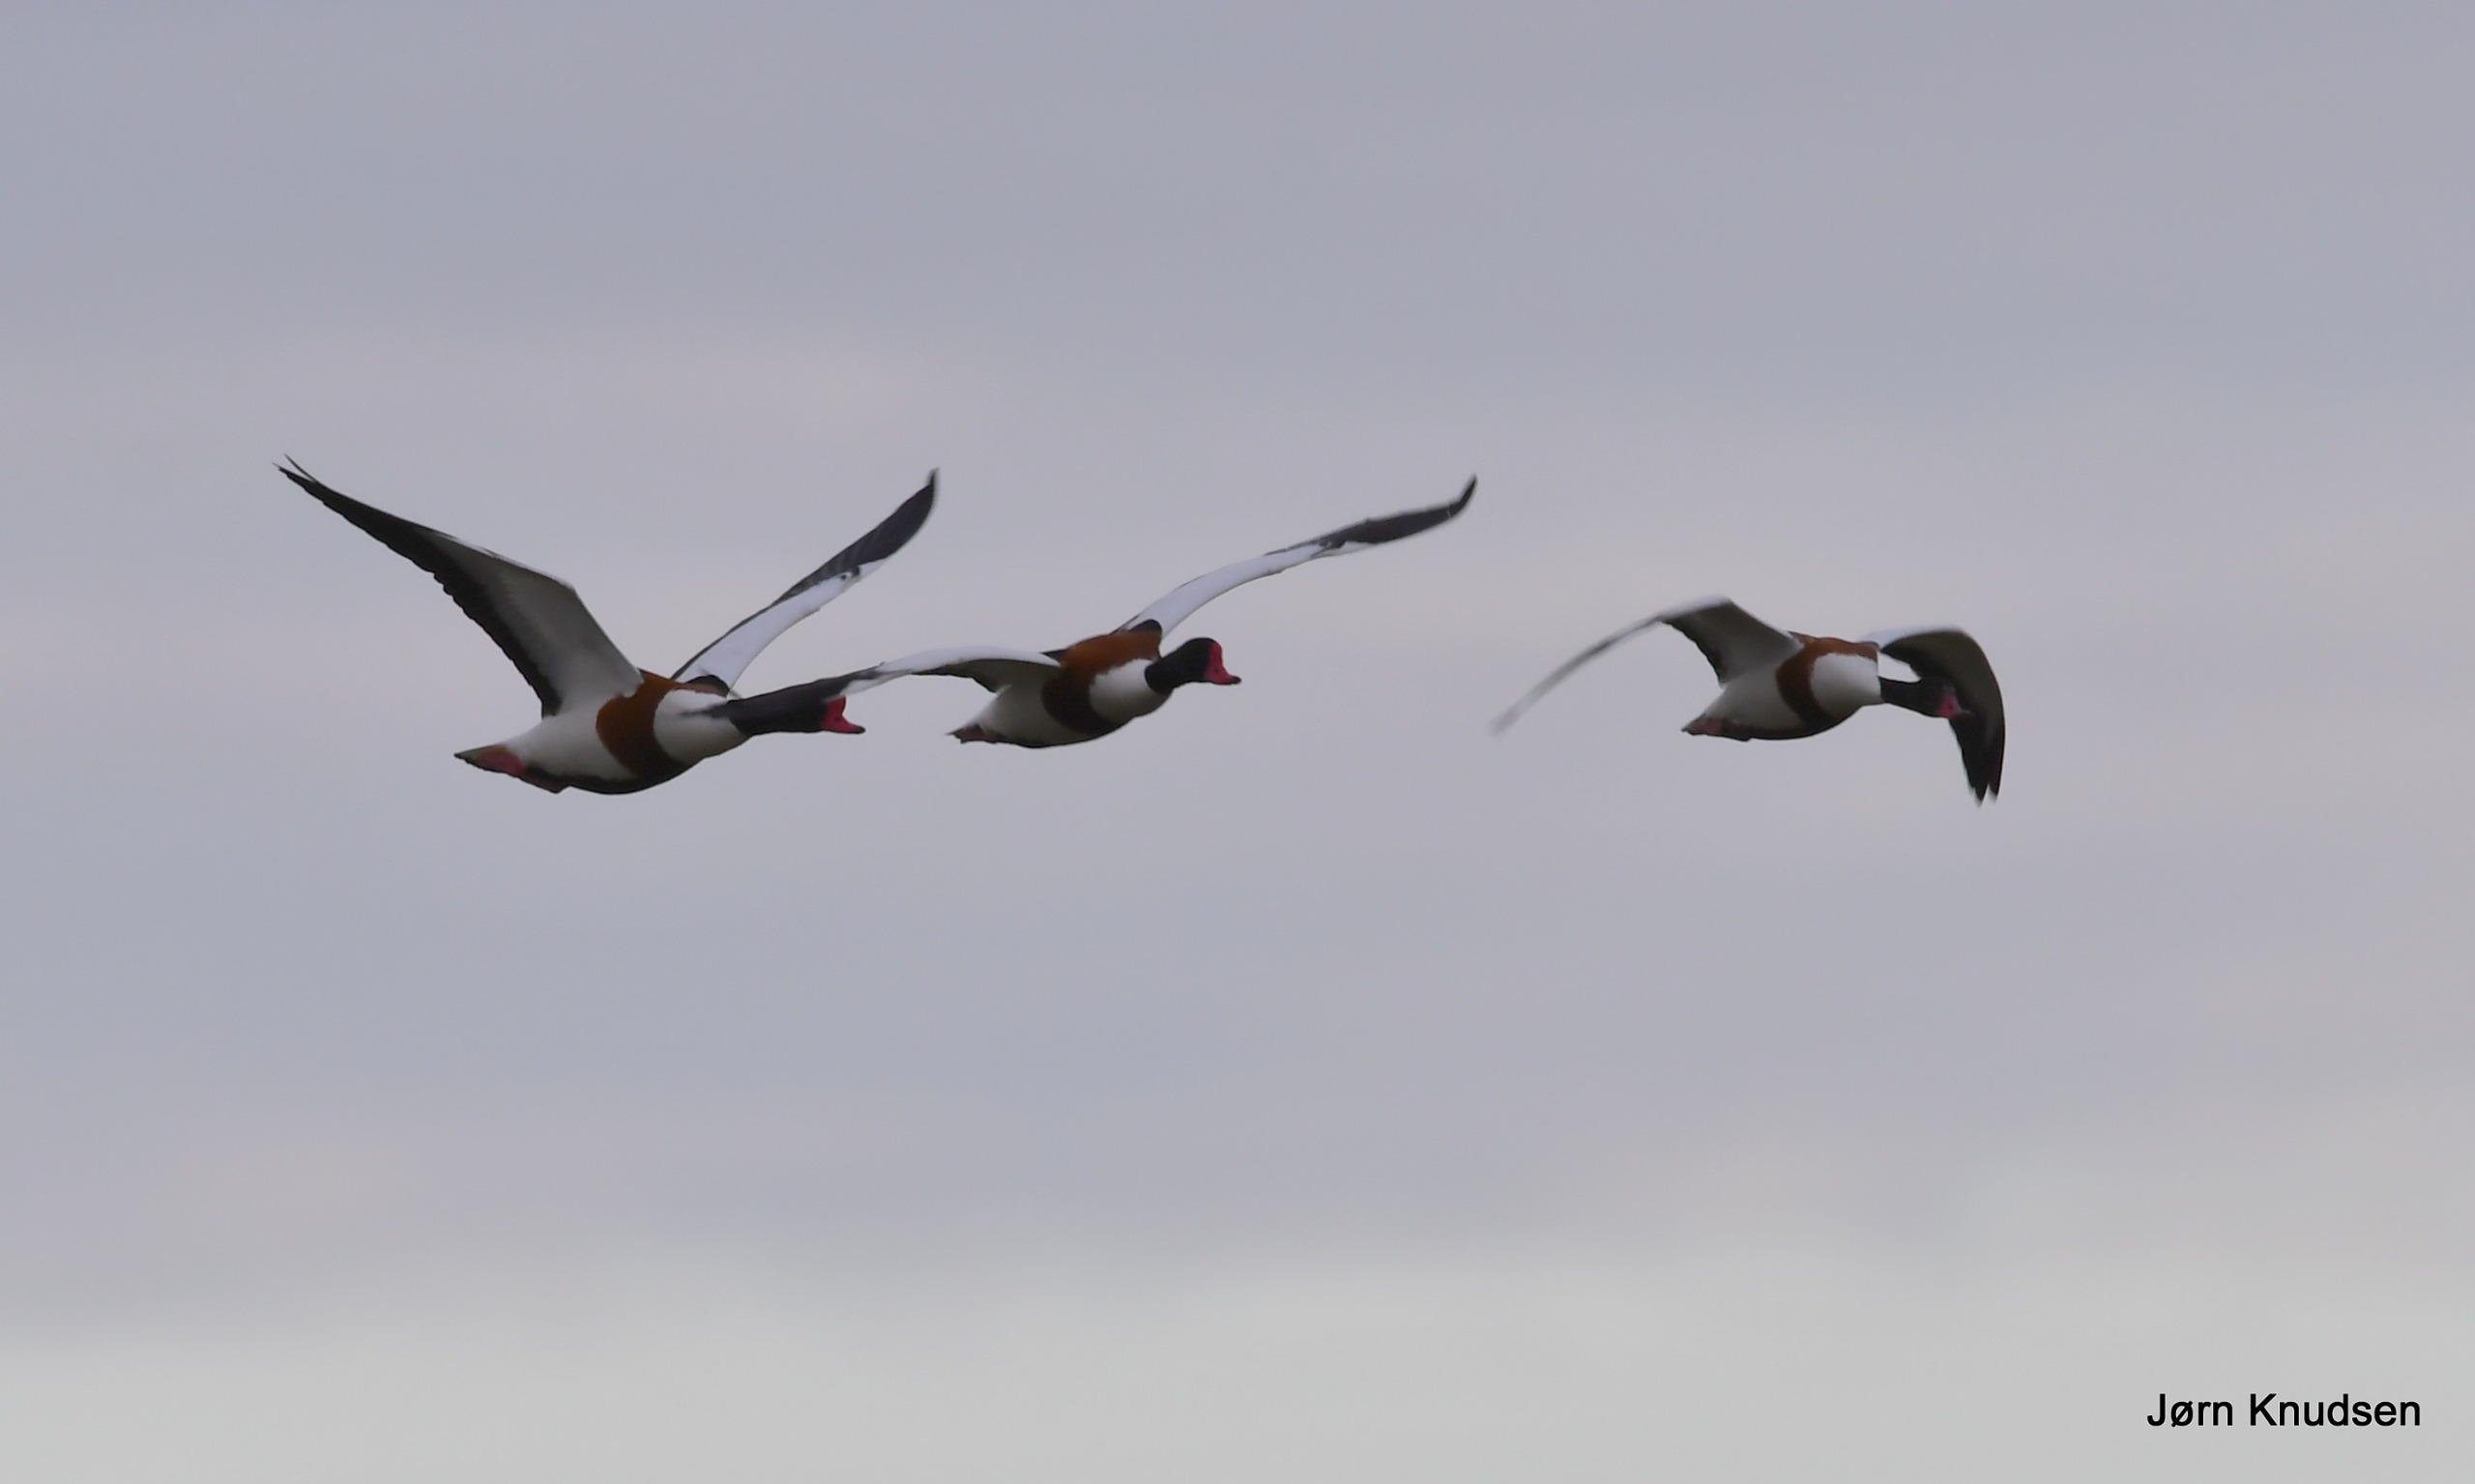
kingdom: Animalia
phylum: Chordata
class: Aves
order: Anseriformes
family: Anatidae
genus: Tadorna
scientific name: Tadorna tadorna
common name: Gravand
